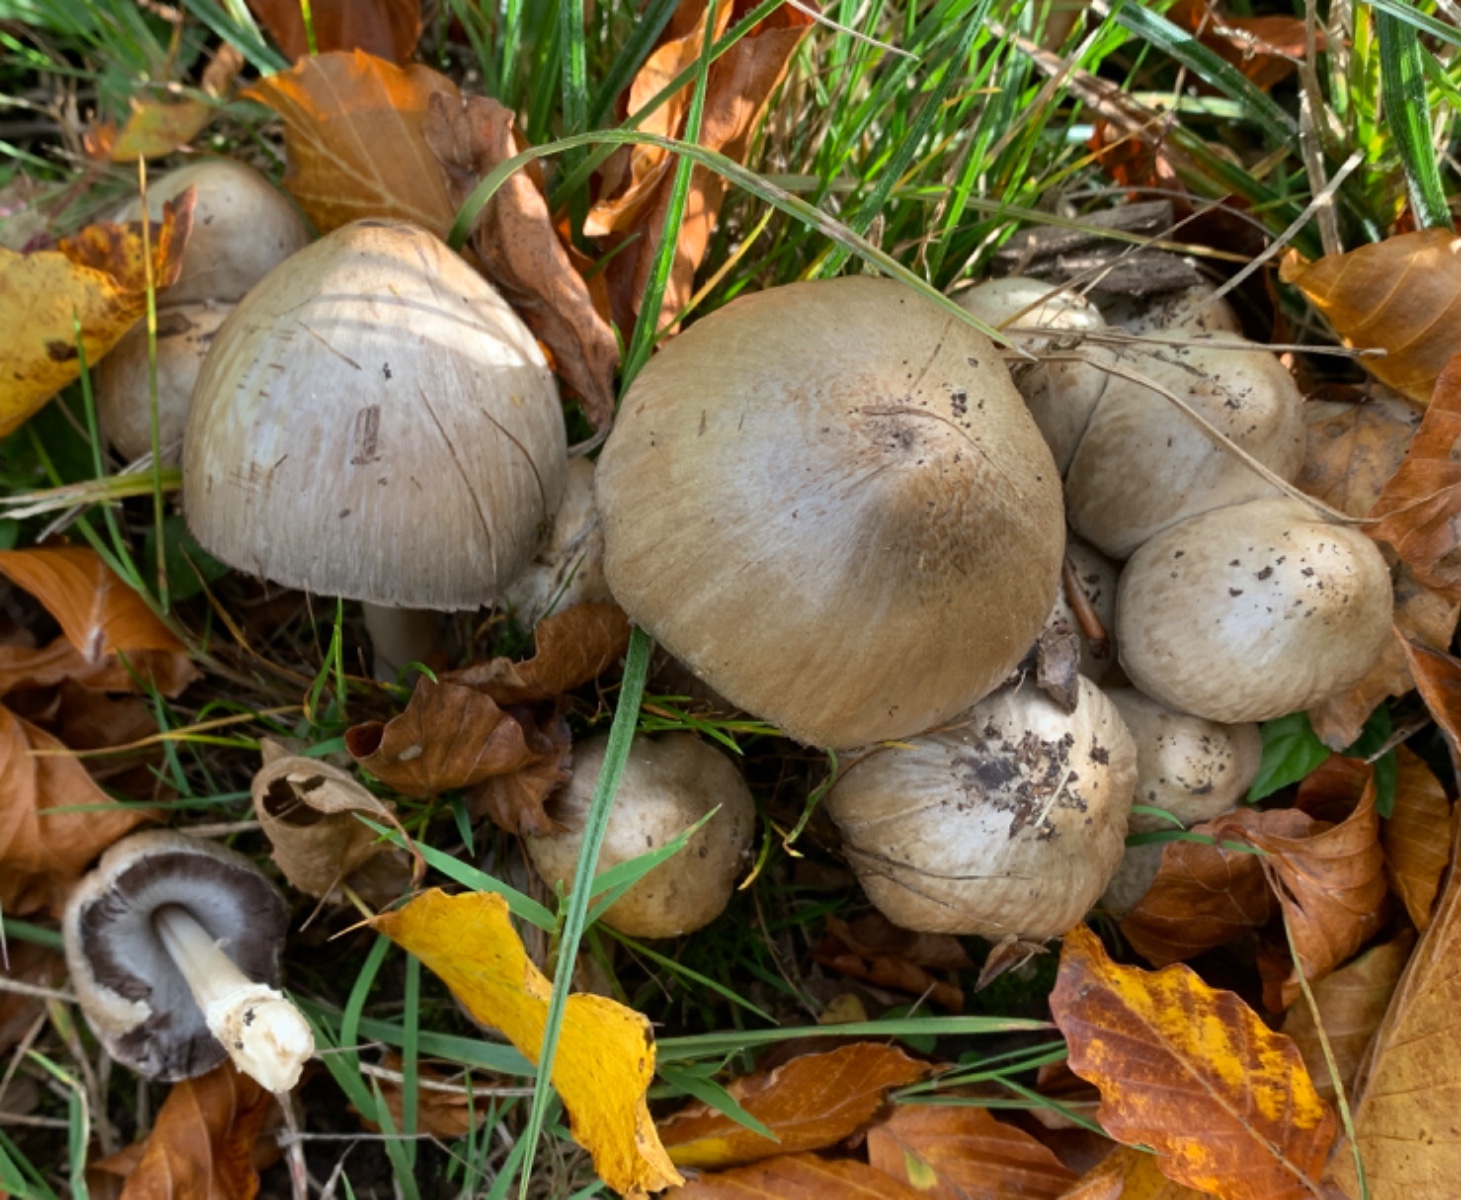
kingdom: Fungi
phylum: Basidiomycota
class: Agaricomycetes
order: Agaricales
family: Psathyrellaceae
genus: Coprinopsis
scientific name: Coprinopsis
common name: blækhat
